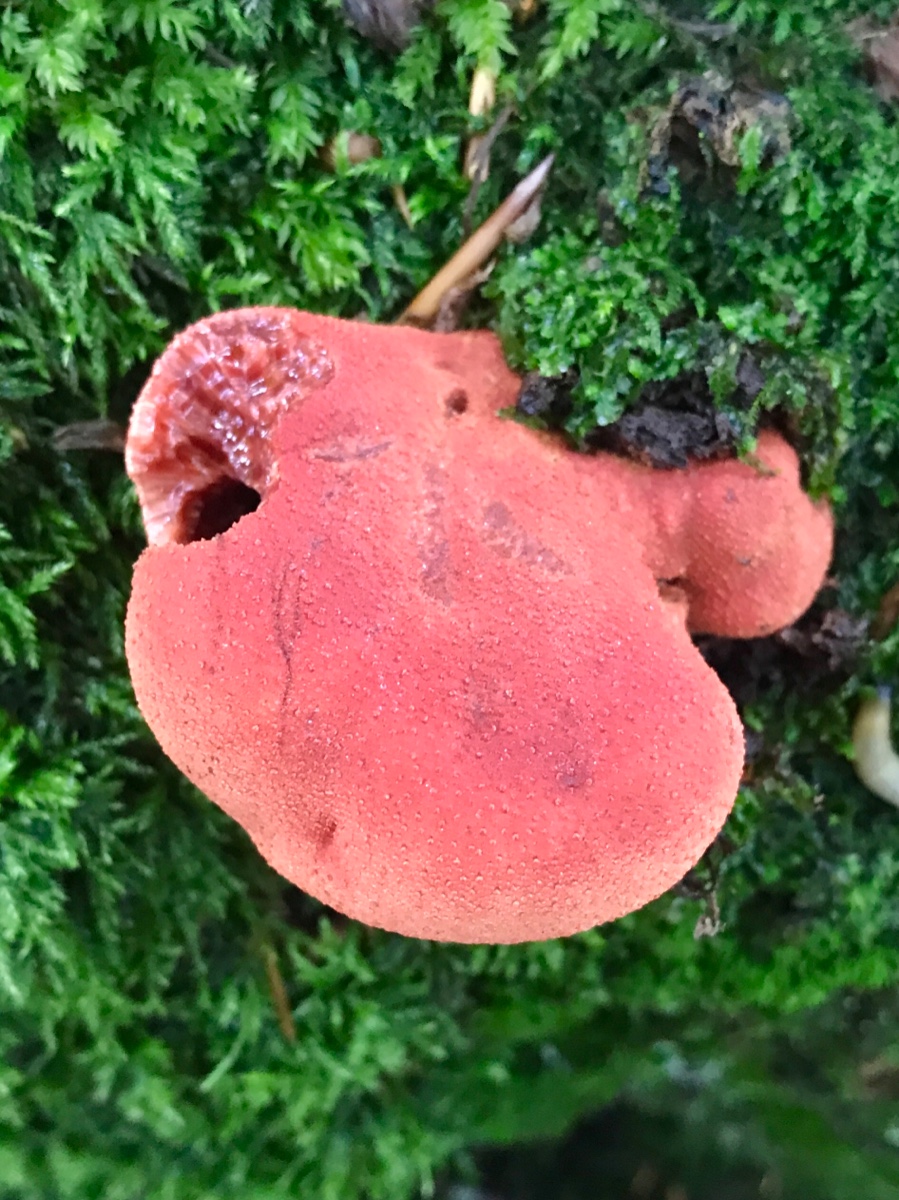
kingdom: Fungi
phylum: Basidiomycota
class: Agaricomycetes
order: Agaricales
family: Fistulinaceae
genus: Fistulina
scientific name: Fistulina hepatica
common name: oksetunge
